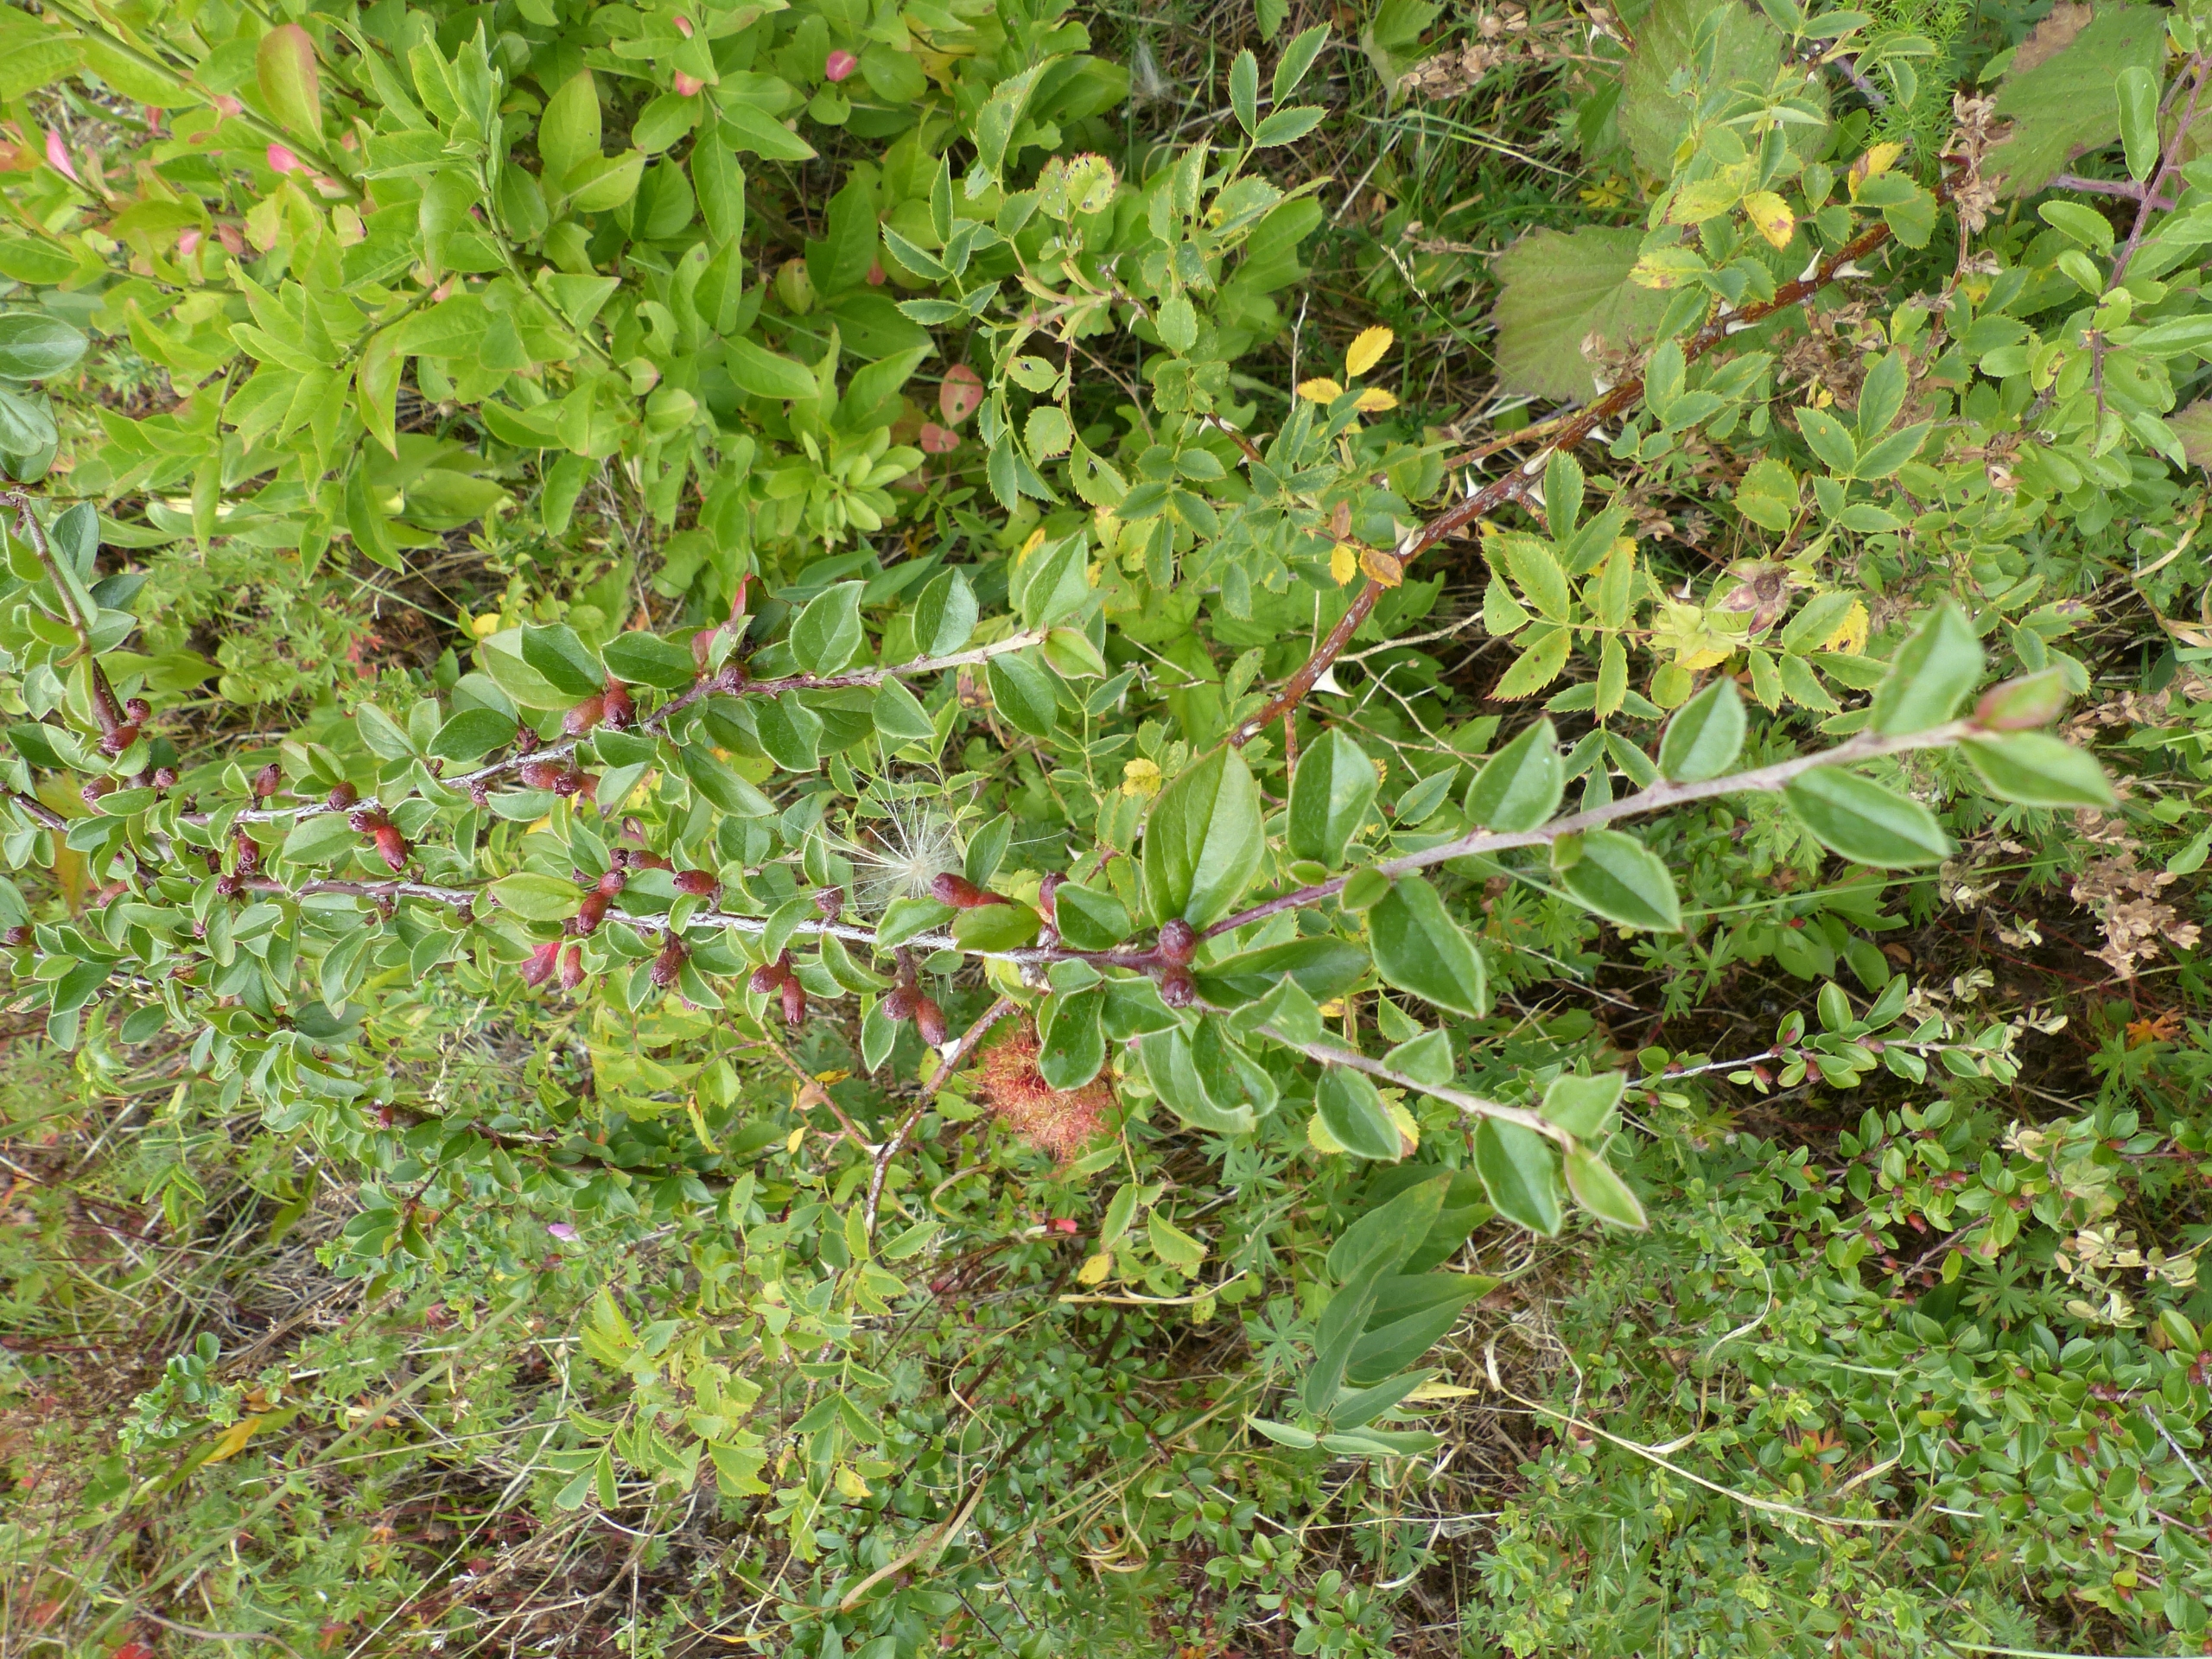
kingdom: Plantae
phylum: Tracheophyta
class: Magnoliopsida
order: Rosales
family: Rosaceae
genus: Cotoneaster
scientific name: Cotoneaster divaricatus
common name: Vifte-dværgmispel
